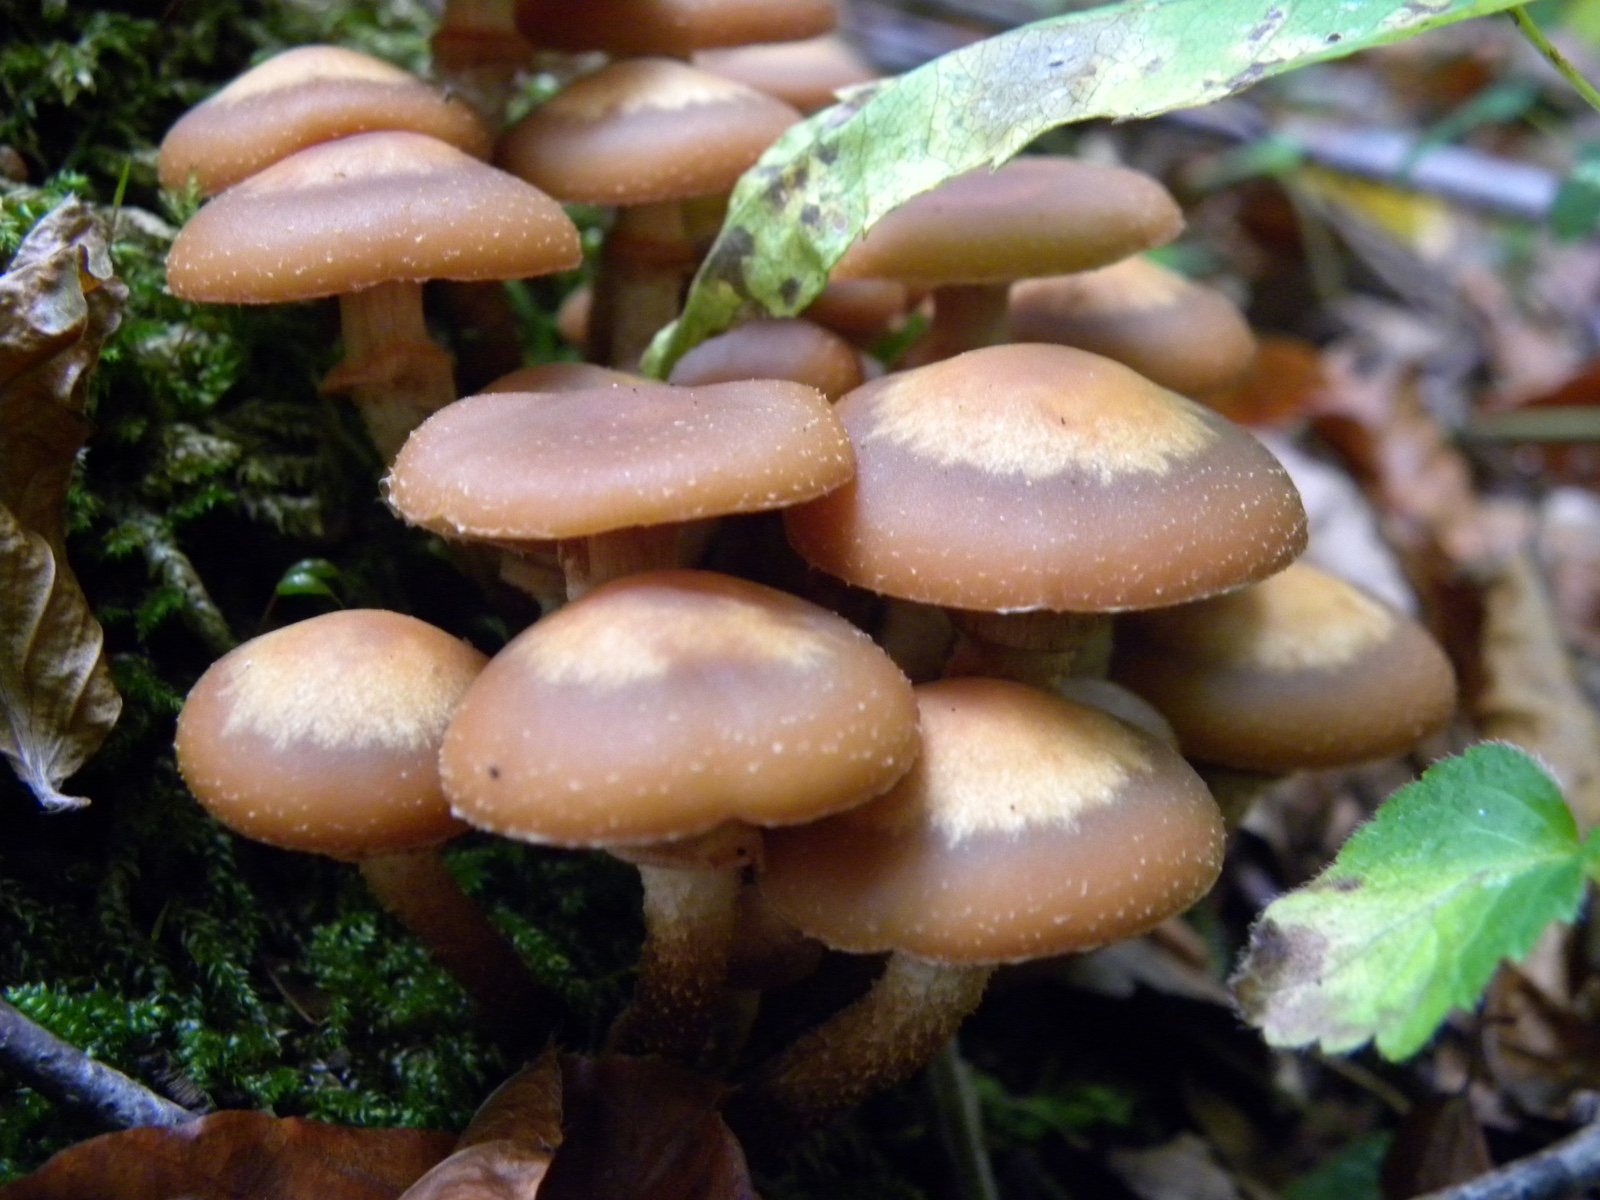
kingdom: Fungi
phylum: Basidiomycota
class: Agaricomycetes
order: Agaricales
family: Strophariaceae
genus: Kuehneromyces
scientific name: Kuehneromyces mutabilis
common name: foranderlig skælhat
